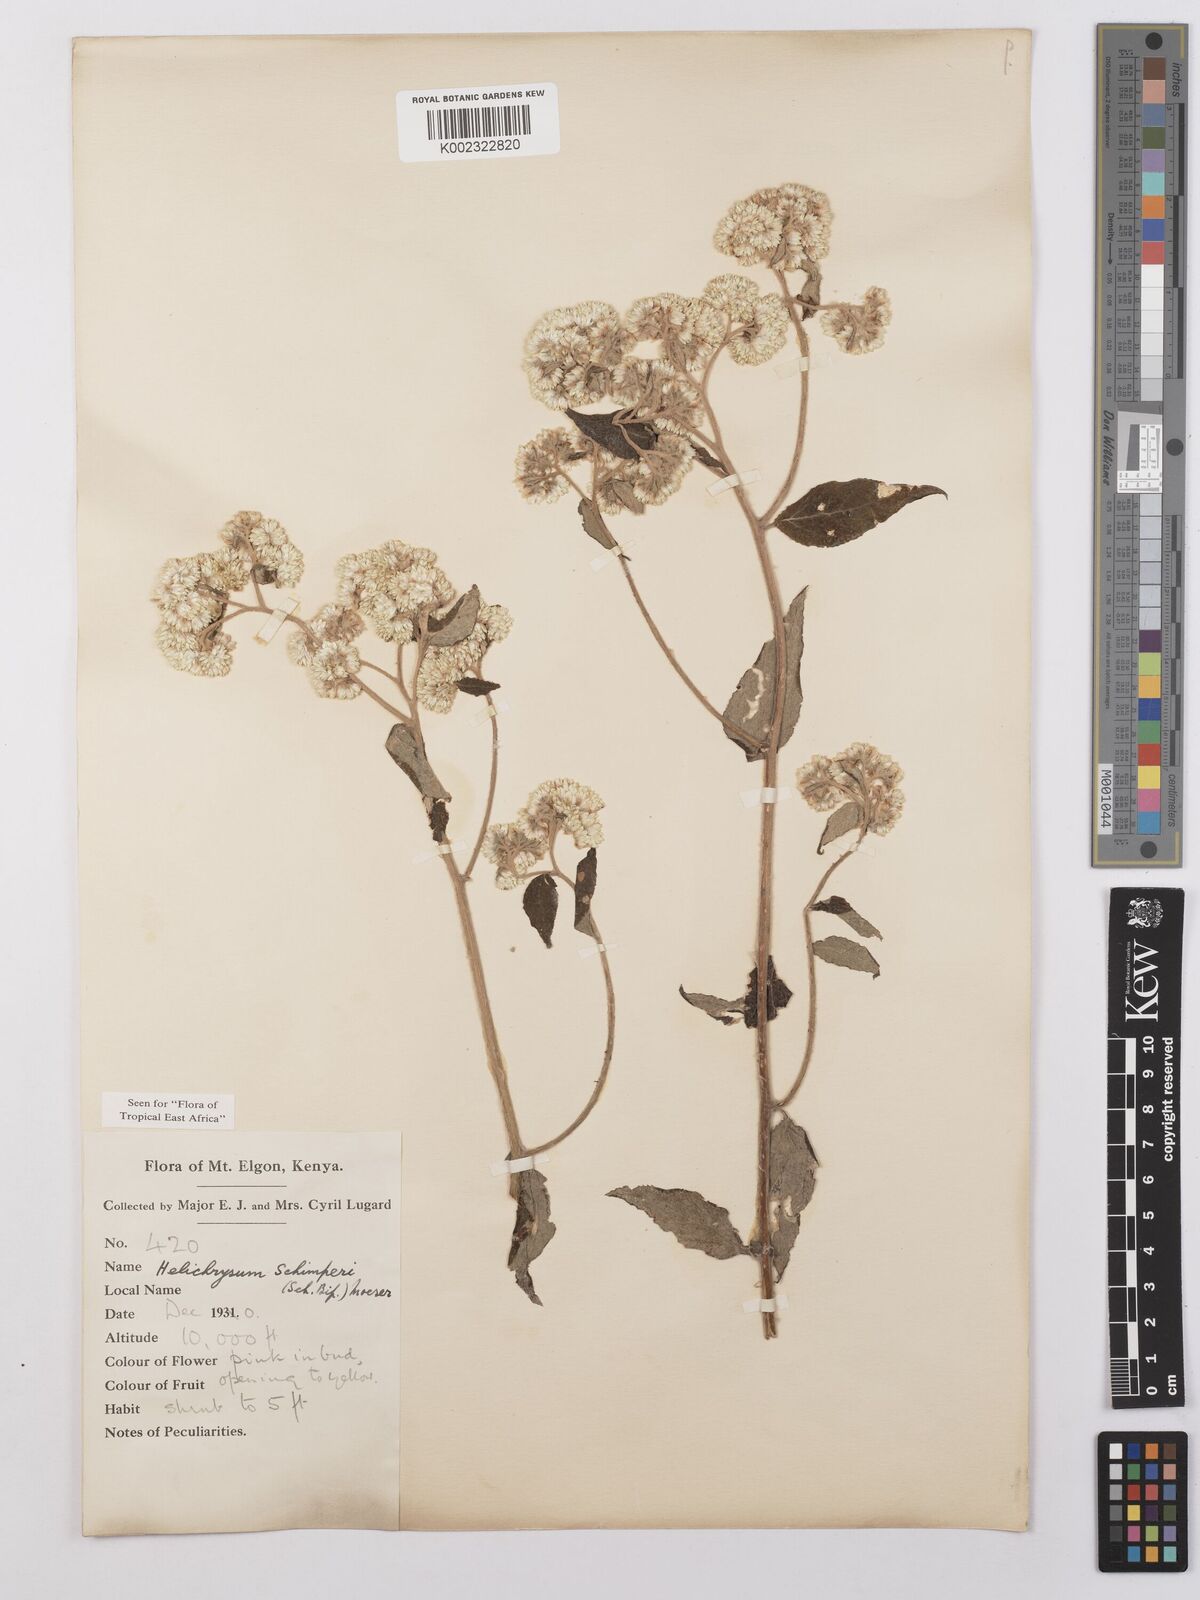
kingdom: Plantae
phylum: Tracheophyta
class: Magnoliopsida
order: Asterales
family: Asteraceae
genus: Helichrysum
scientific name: Helichrysum schimperi
